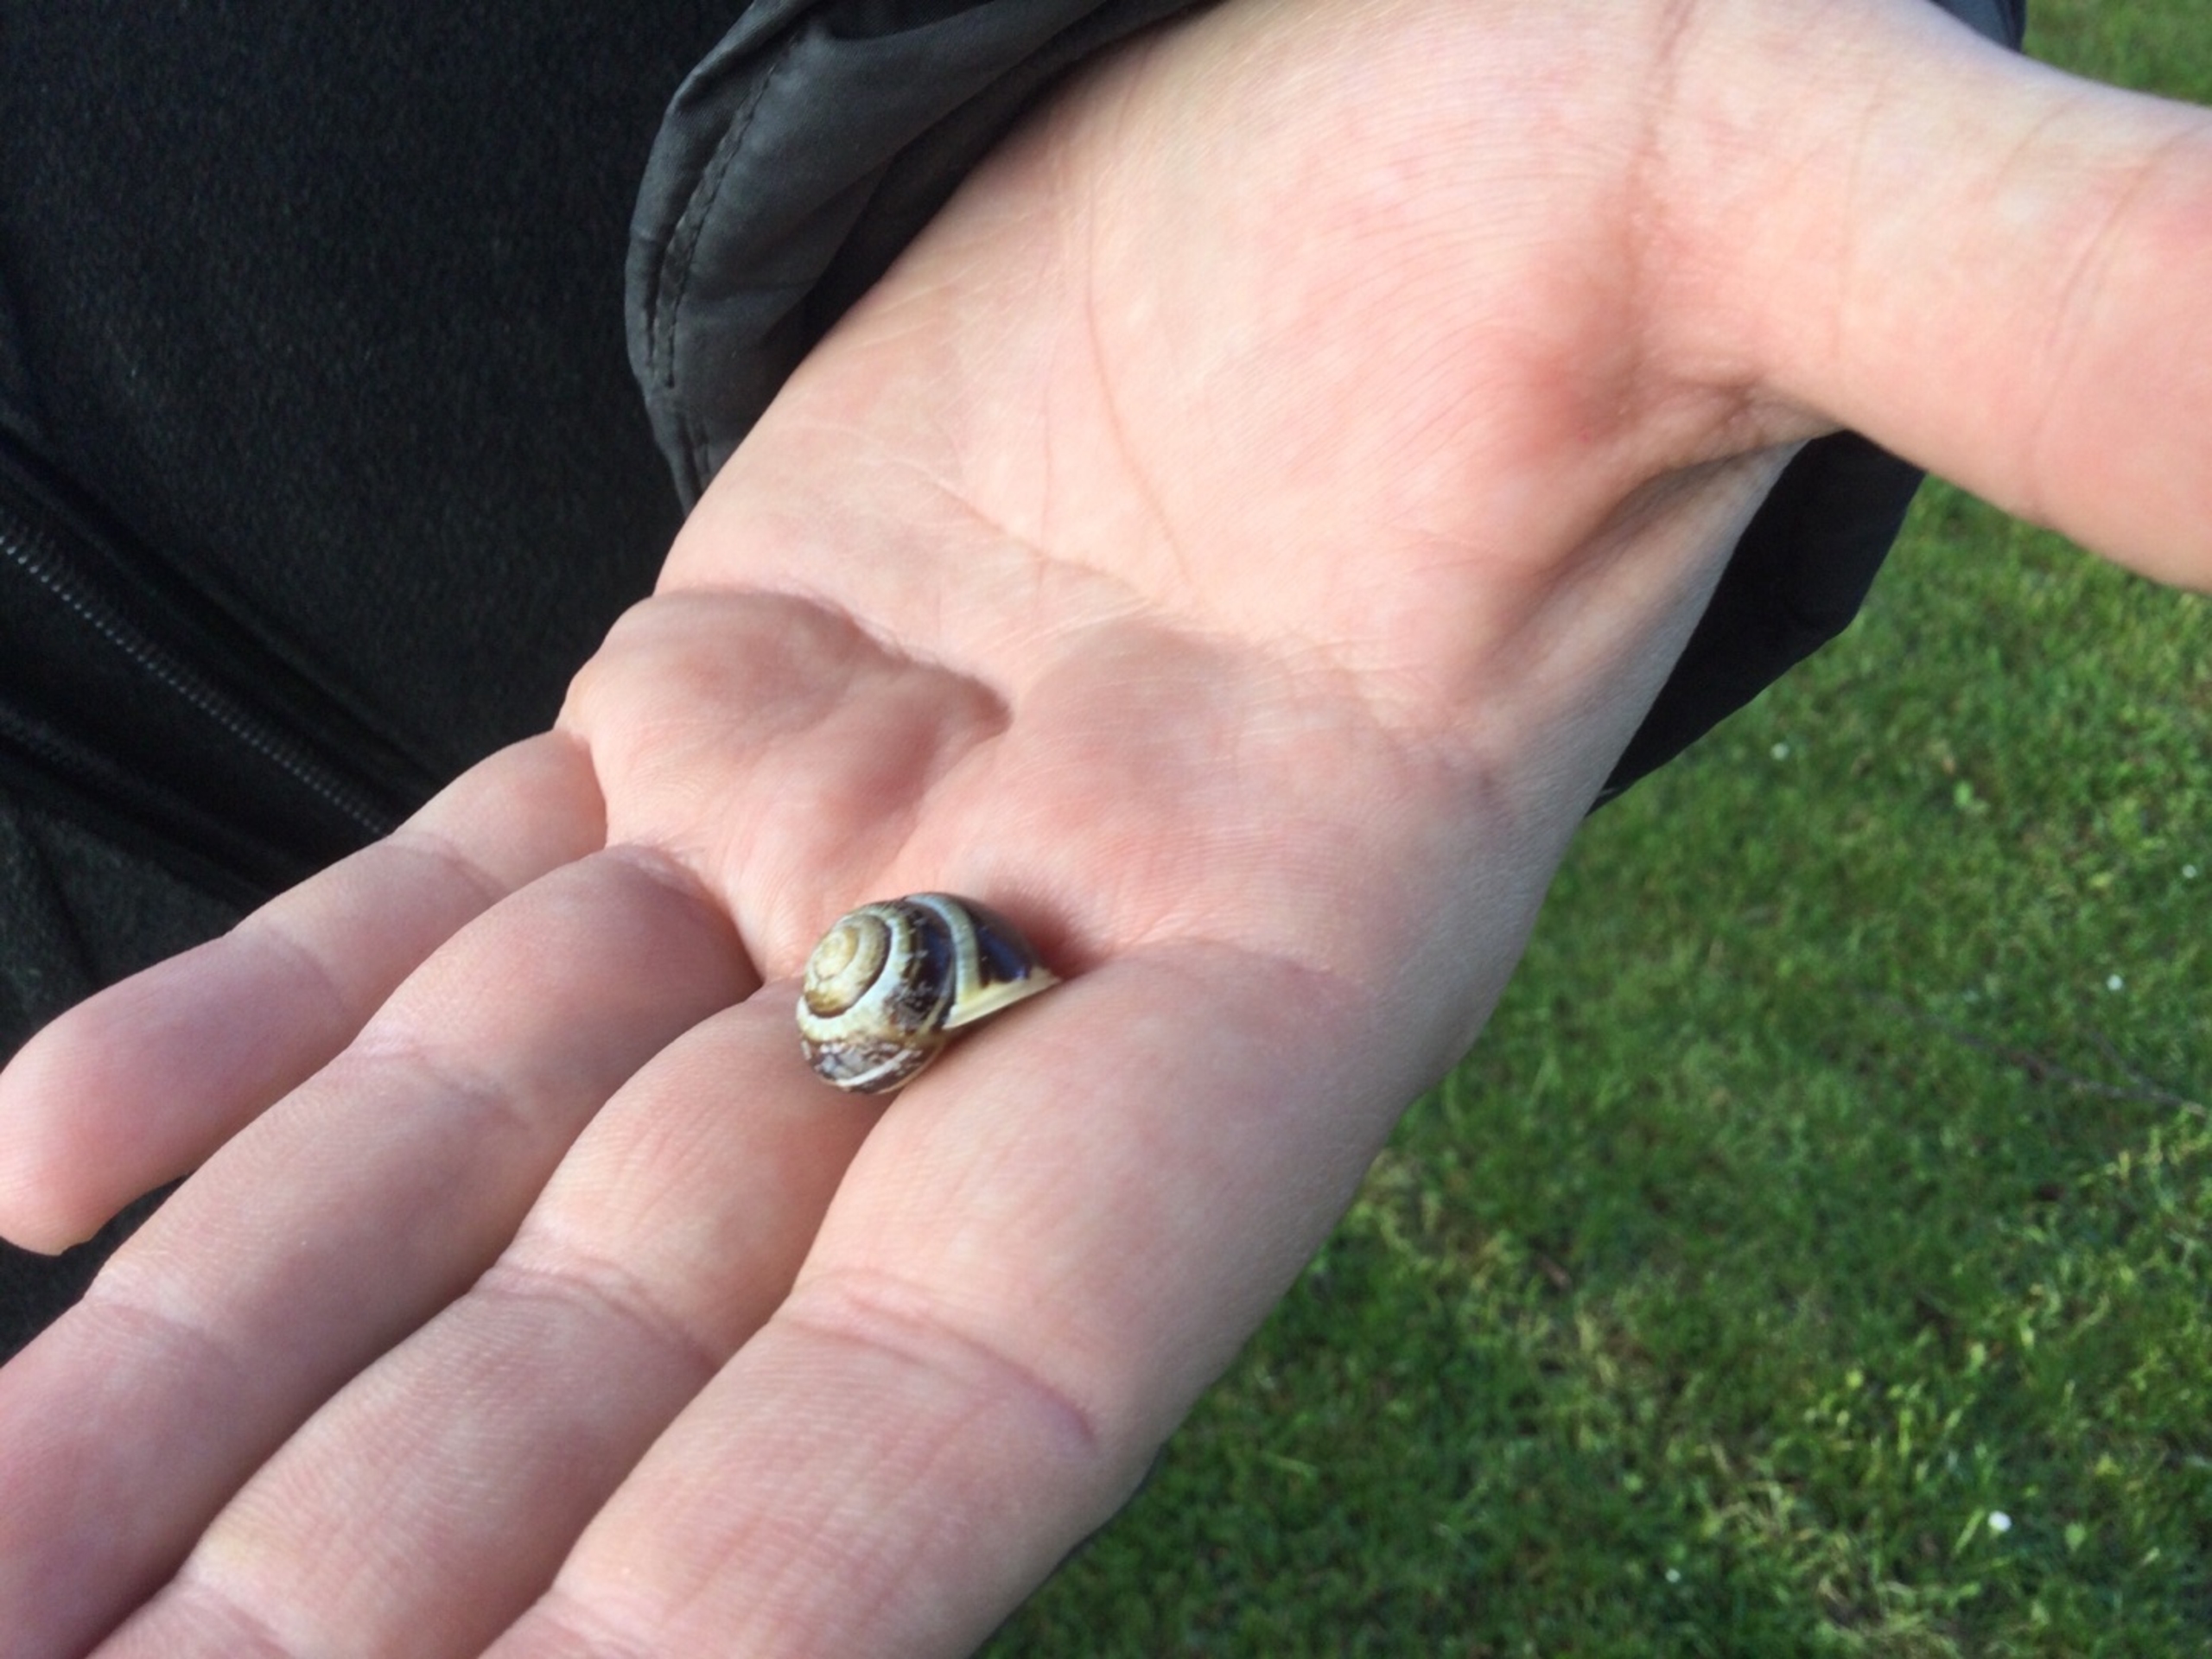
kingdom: Animalia
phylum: Mollusca
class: Gastropoda
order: Stylommatophora
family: Helicidae
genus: Cepaea
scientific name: Cepaea hortensis
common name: Havesnegl
